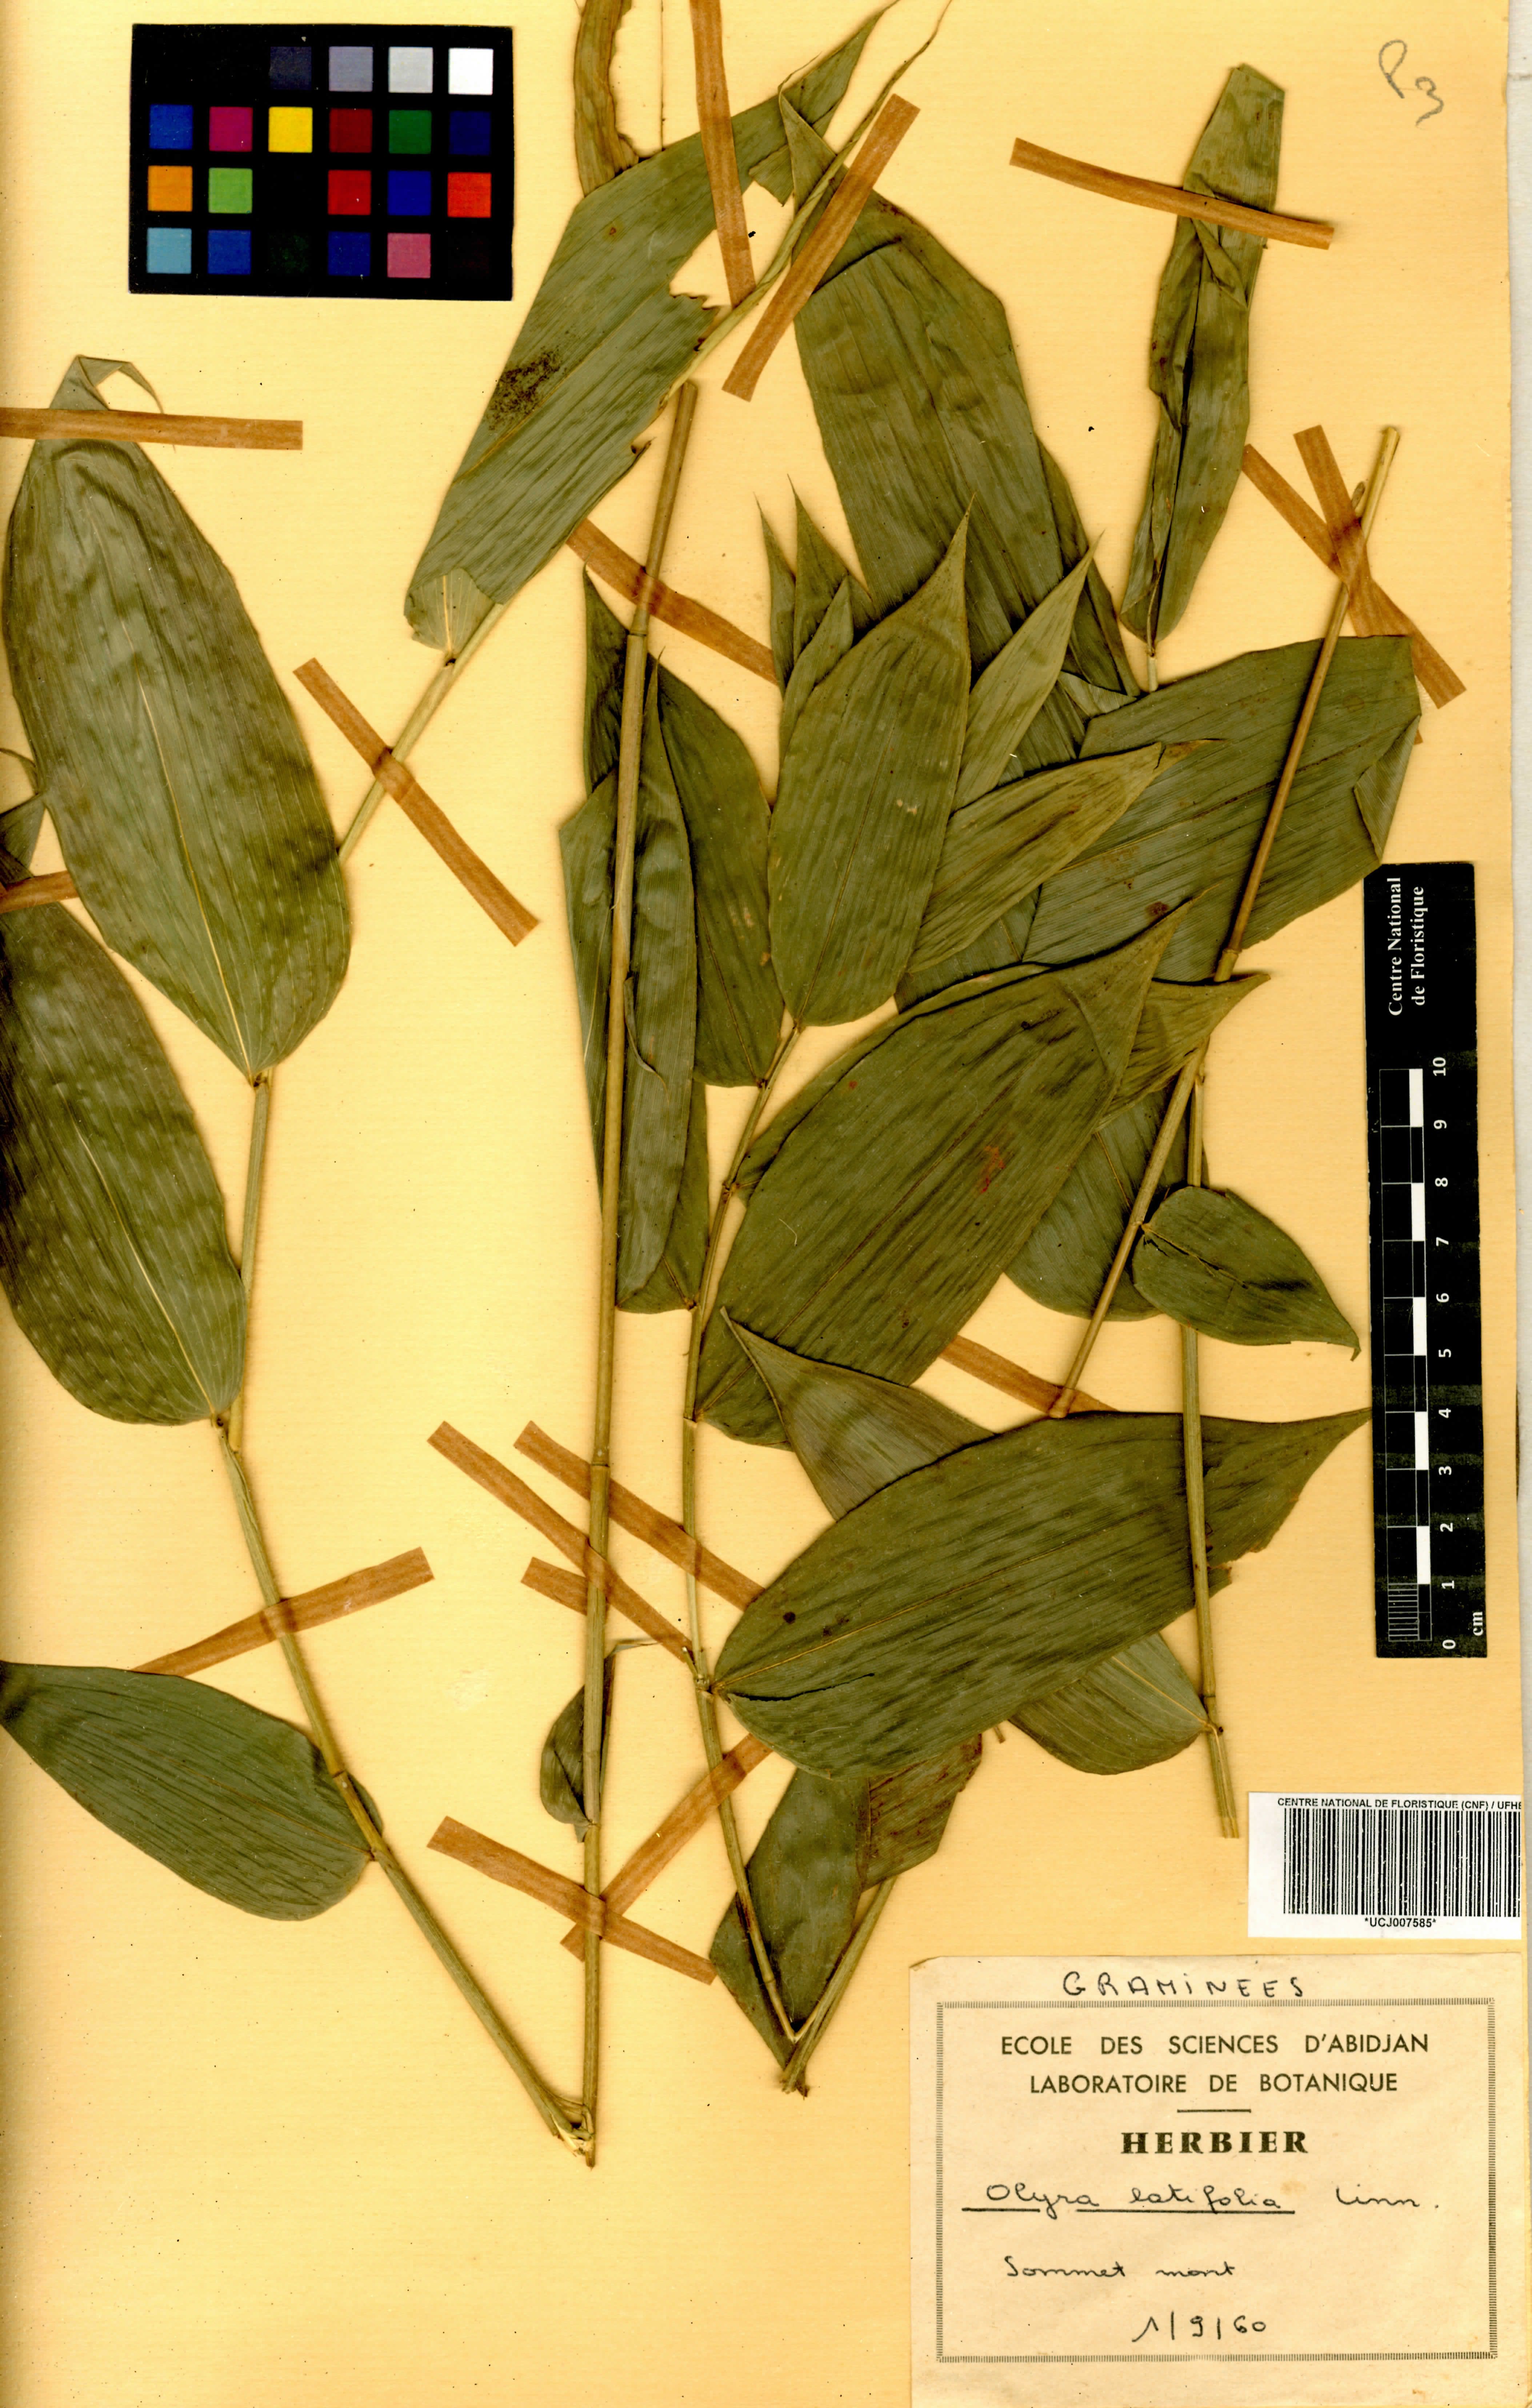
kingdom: Plantae
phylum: Tracheophyta
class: Liliopsida
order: Poales
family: Poaceae
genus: Olyra
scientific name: Olyra latifolia
